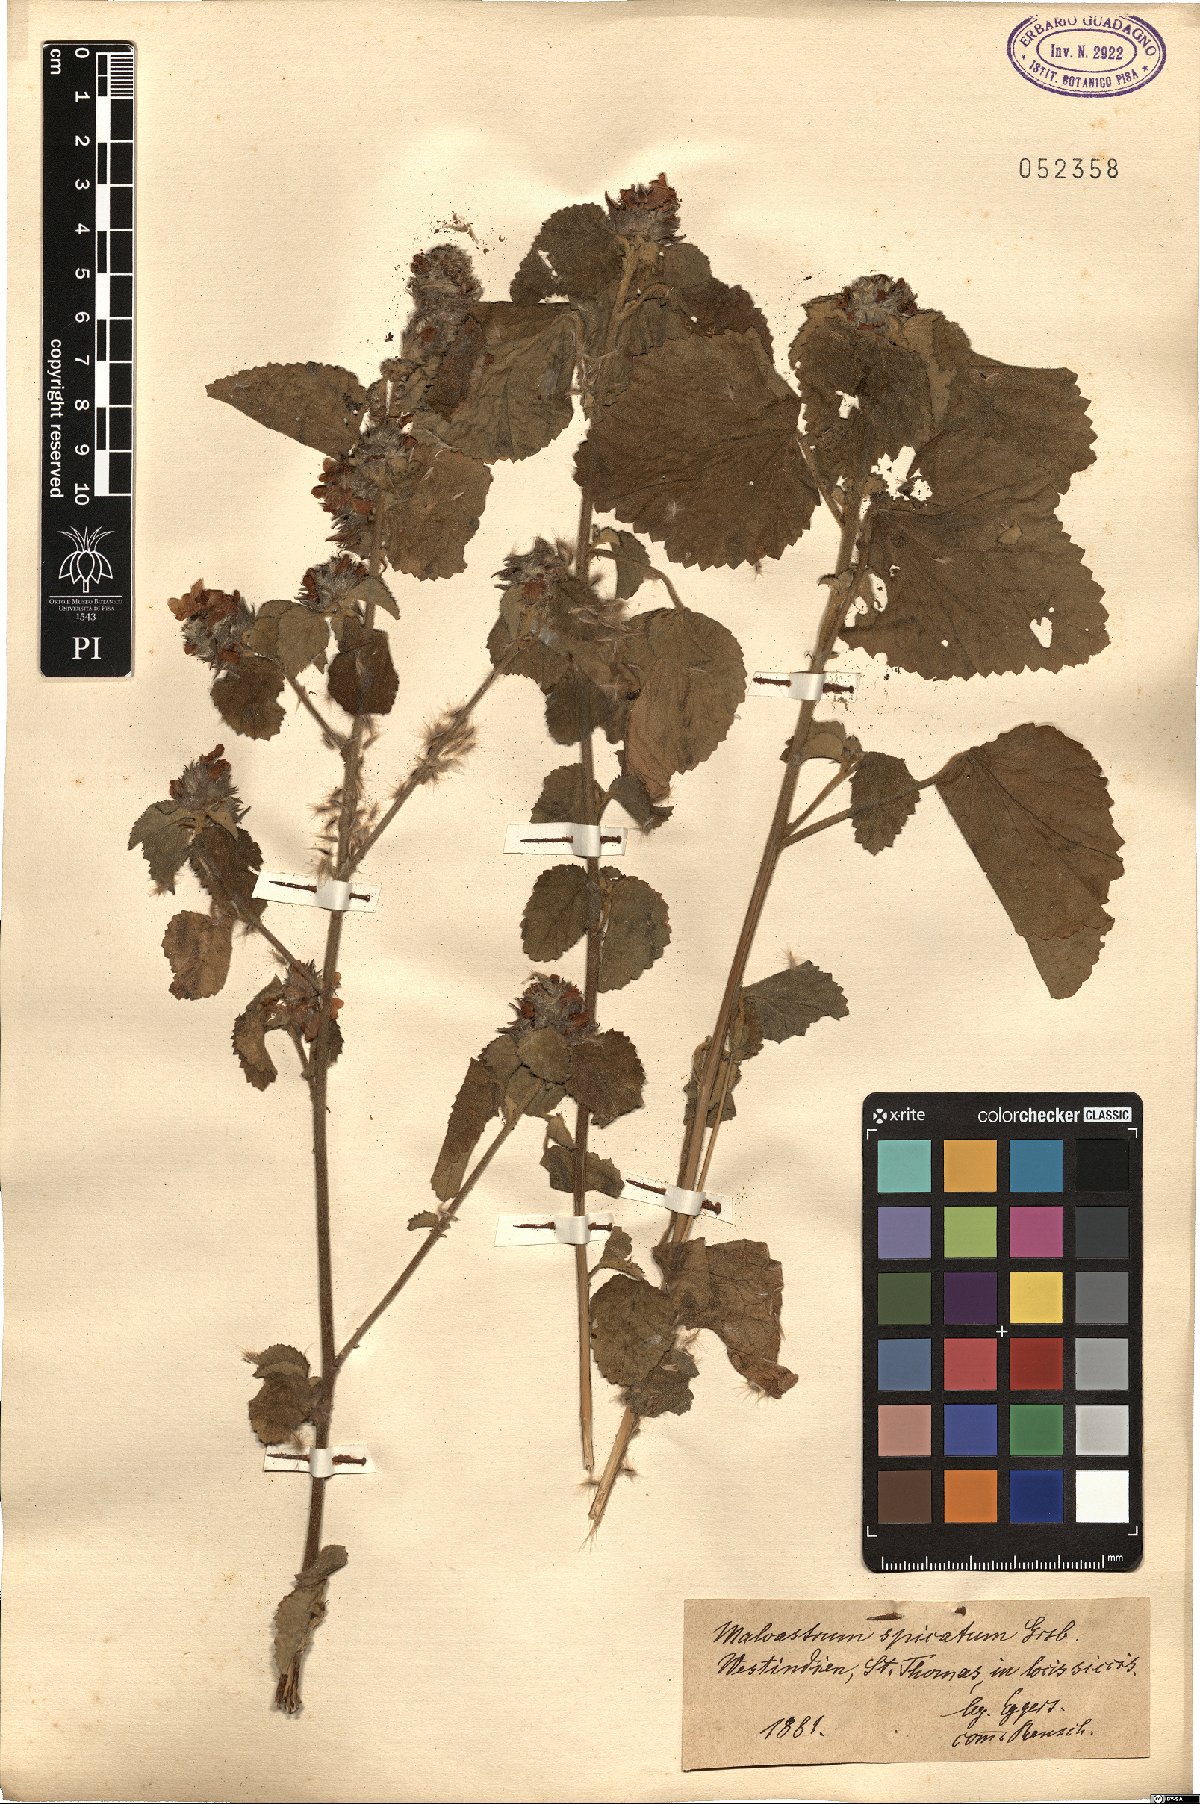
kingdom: Plantae
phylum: Tracheophyta
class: Magnoliopsida
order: Malvales
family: Malvaceae
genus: Melochia
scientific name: Melochia spicata
